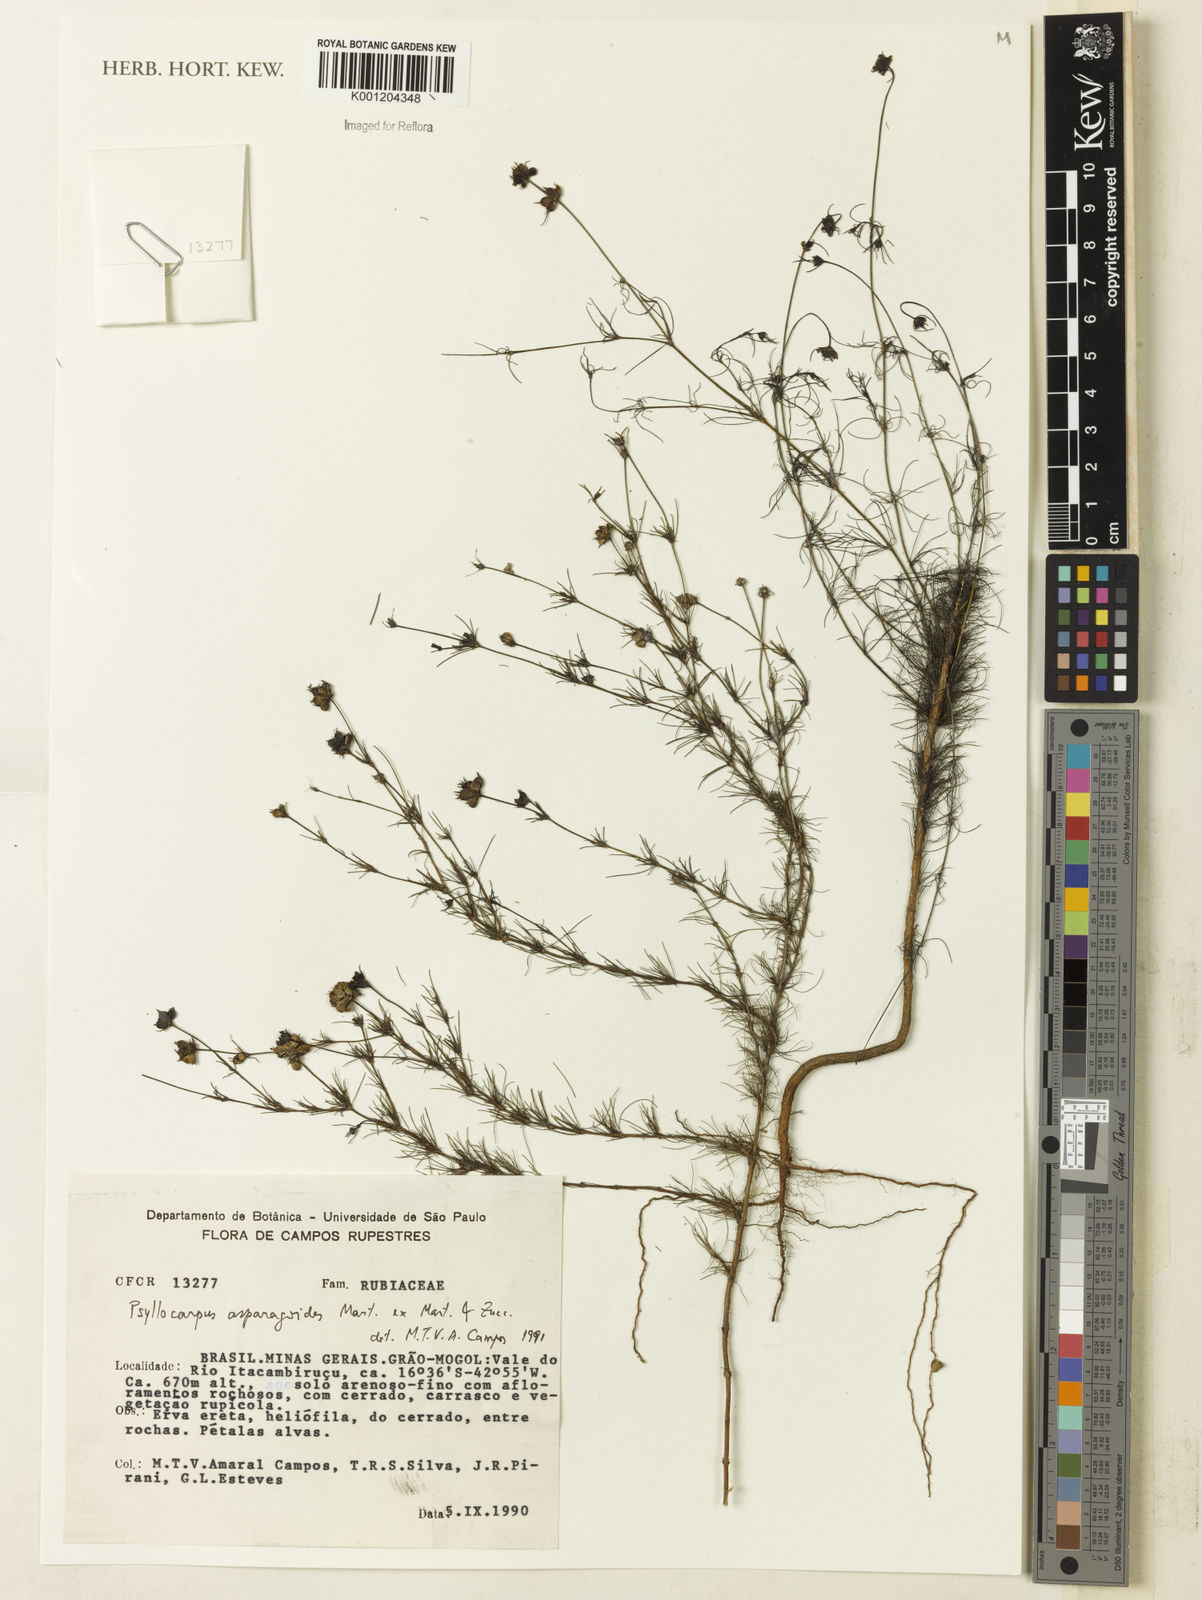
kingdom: Plantae
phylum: Tracheophyta
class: Magnoliopsida
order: Gentianales
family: Rubiaceae
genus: Psyllocarpus
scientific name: Psyllocarpus asparagoides
